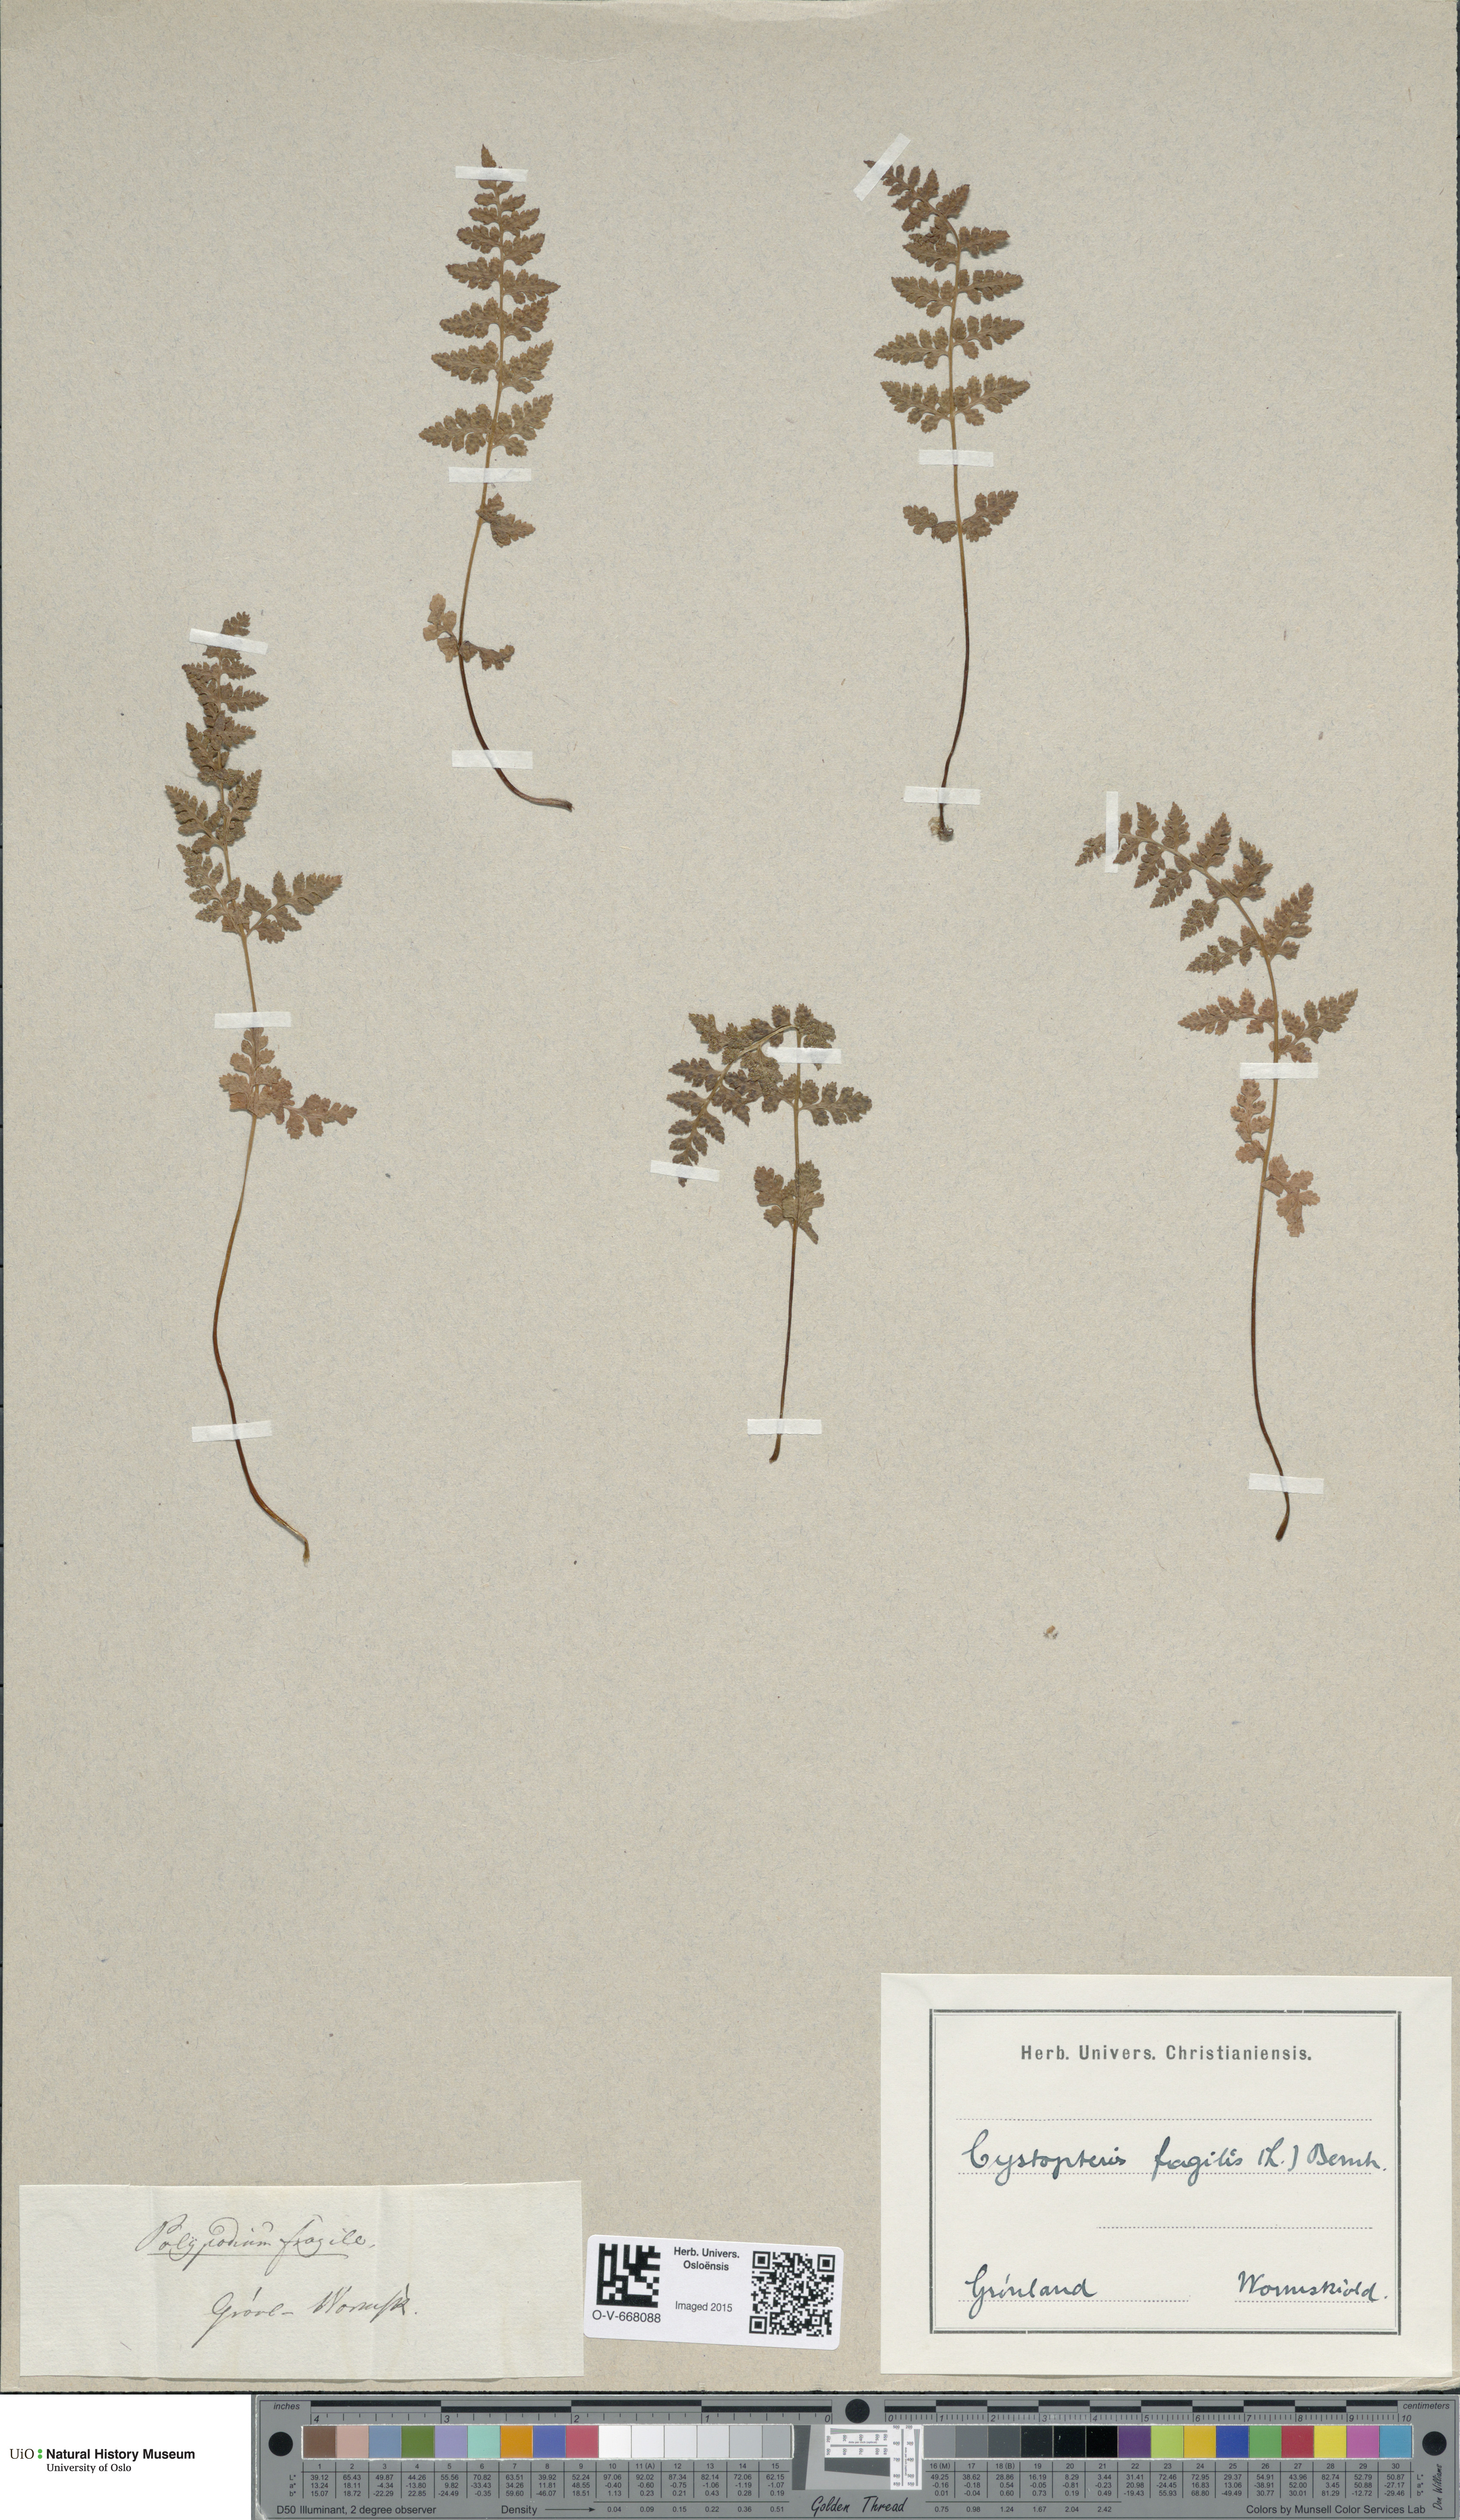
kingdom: Plantae
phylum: Tracheophyta
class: Polypodiopsida
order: Polypodiales
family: Cystopteridaceae
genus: Cystopteris
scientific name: Cystopteris fragilis
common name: Brittle bladder fern
